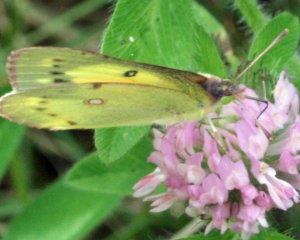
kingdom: Animalia
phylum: Arthropoda
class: Insecta
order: Lepidoptera
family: Pieridae
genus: Colias
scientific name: Colias eurytheme
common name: Orange Sulphur
